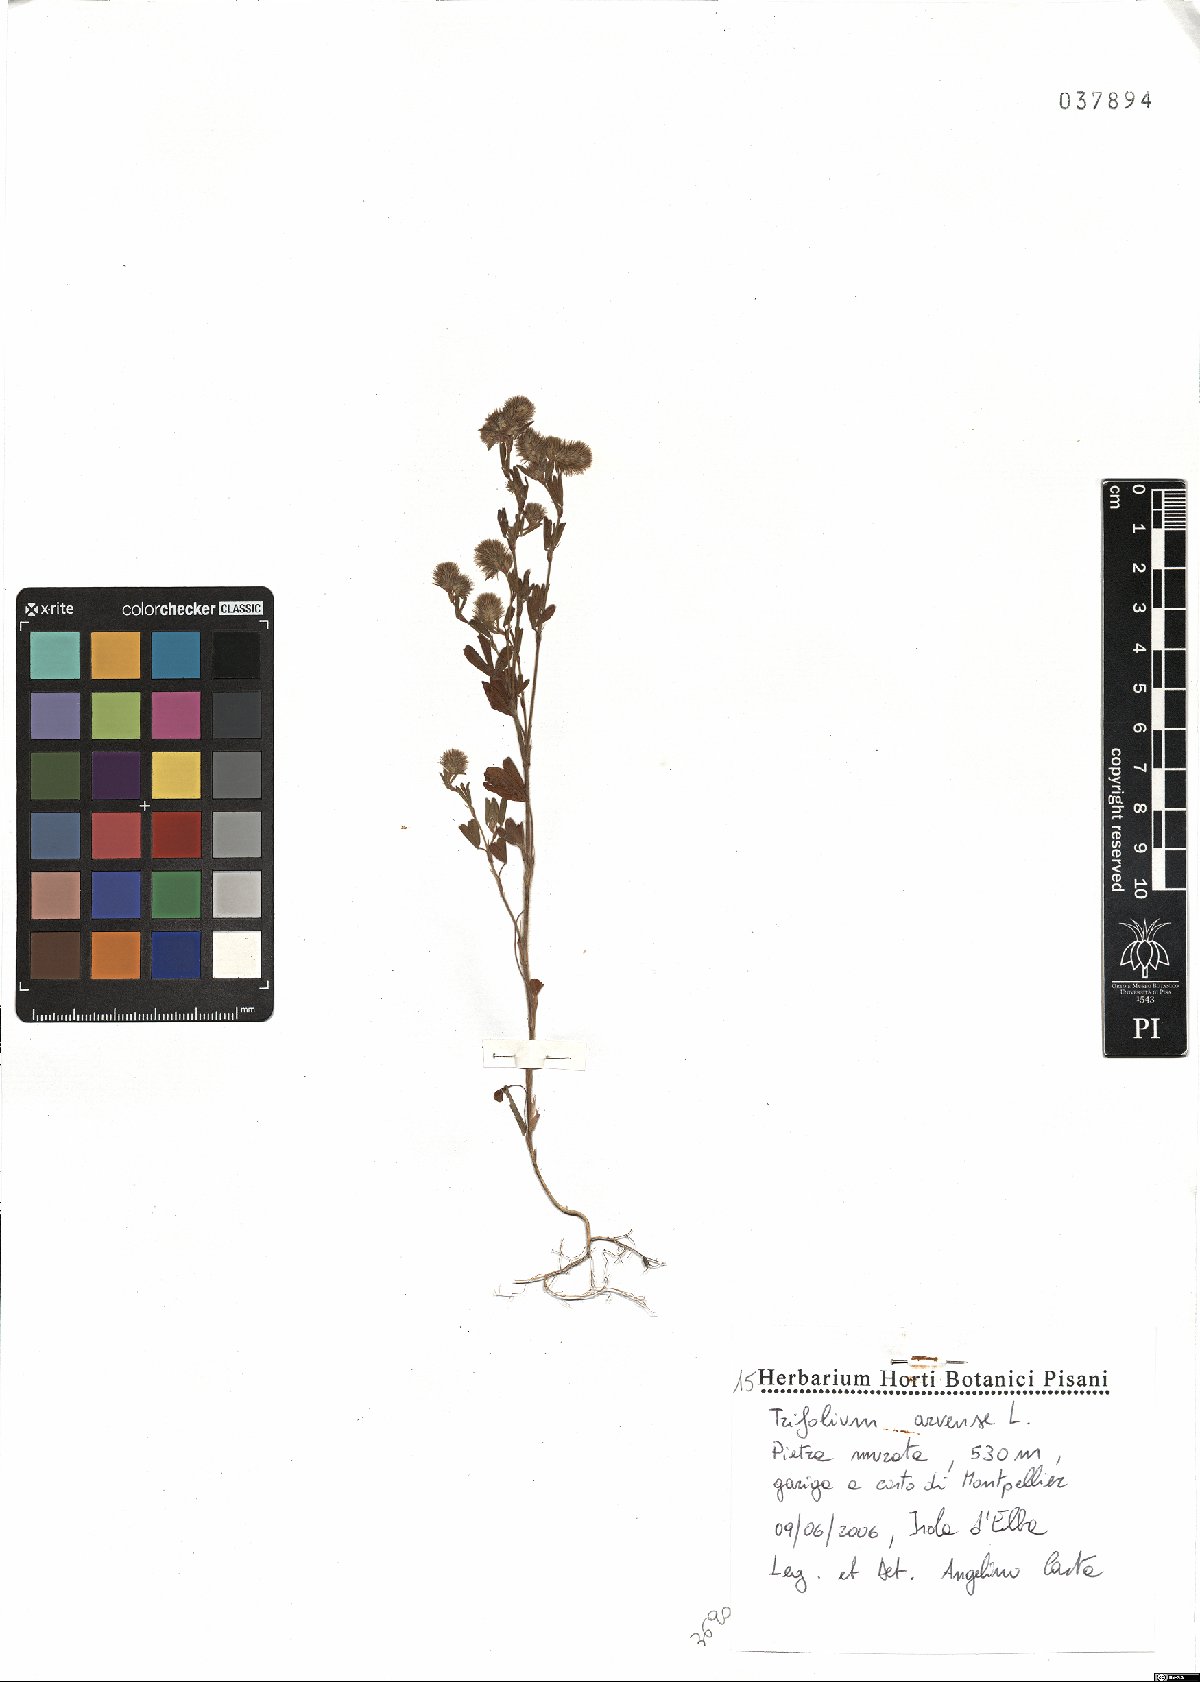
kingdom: Plantae
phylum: Tracheophyta
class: Magnoliopsida
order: Fabales
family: Fabaceae
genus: Trifolium
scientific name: Trifolium arvense
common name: Hare's-foot clover
